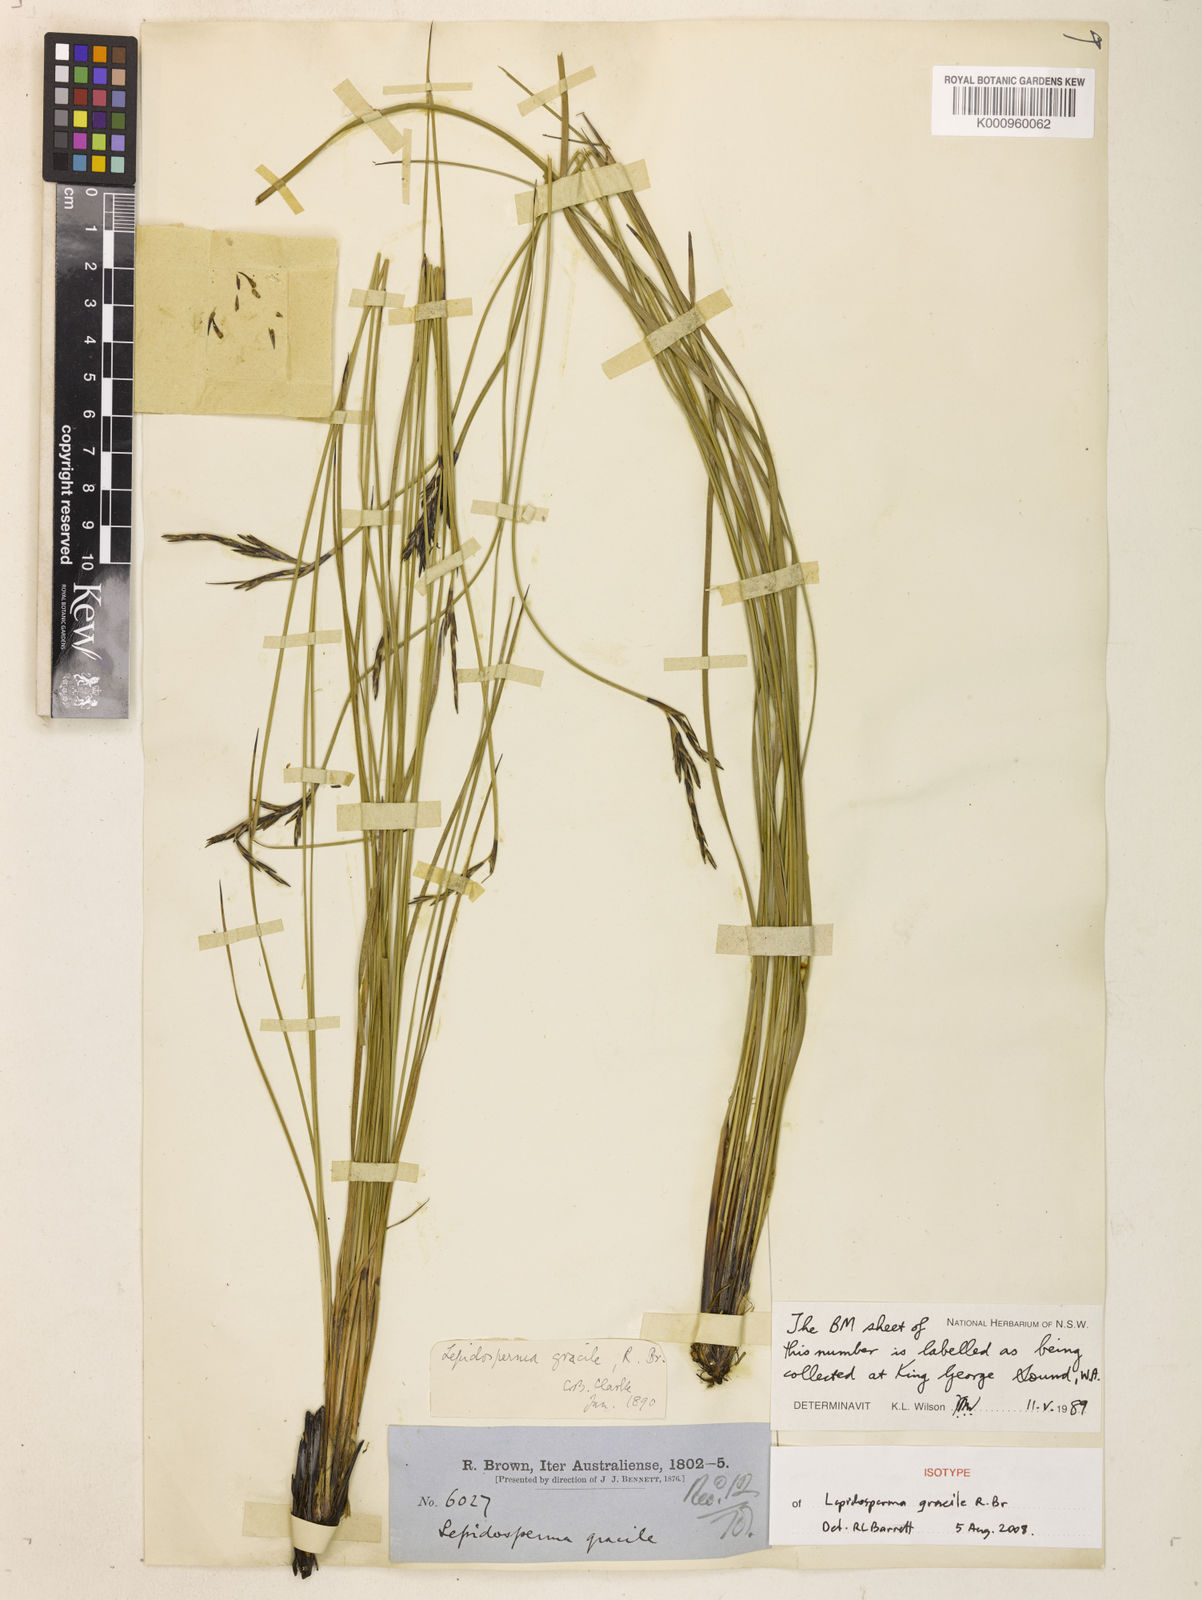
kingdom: Plantae
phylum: Tracheophyta
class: Liliopsida
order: Poales
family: Cyperaceae
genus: Lepidosperma
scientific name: Lepidosperma
